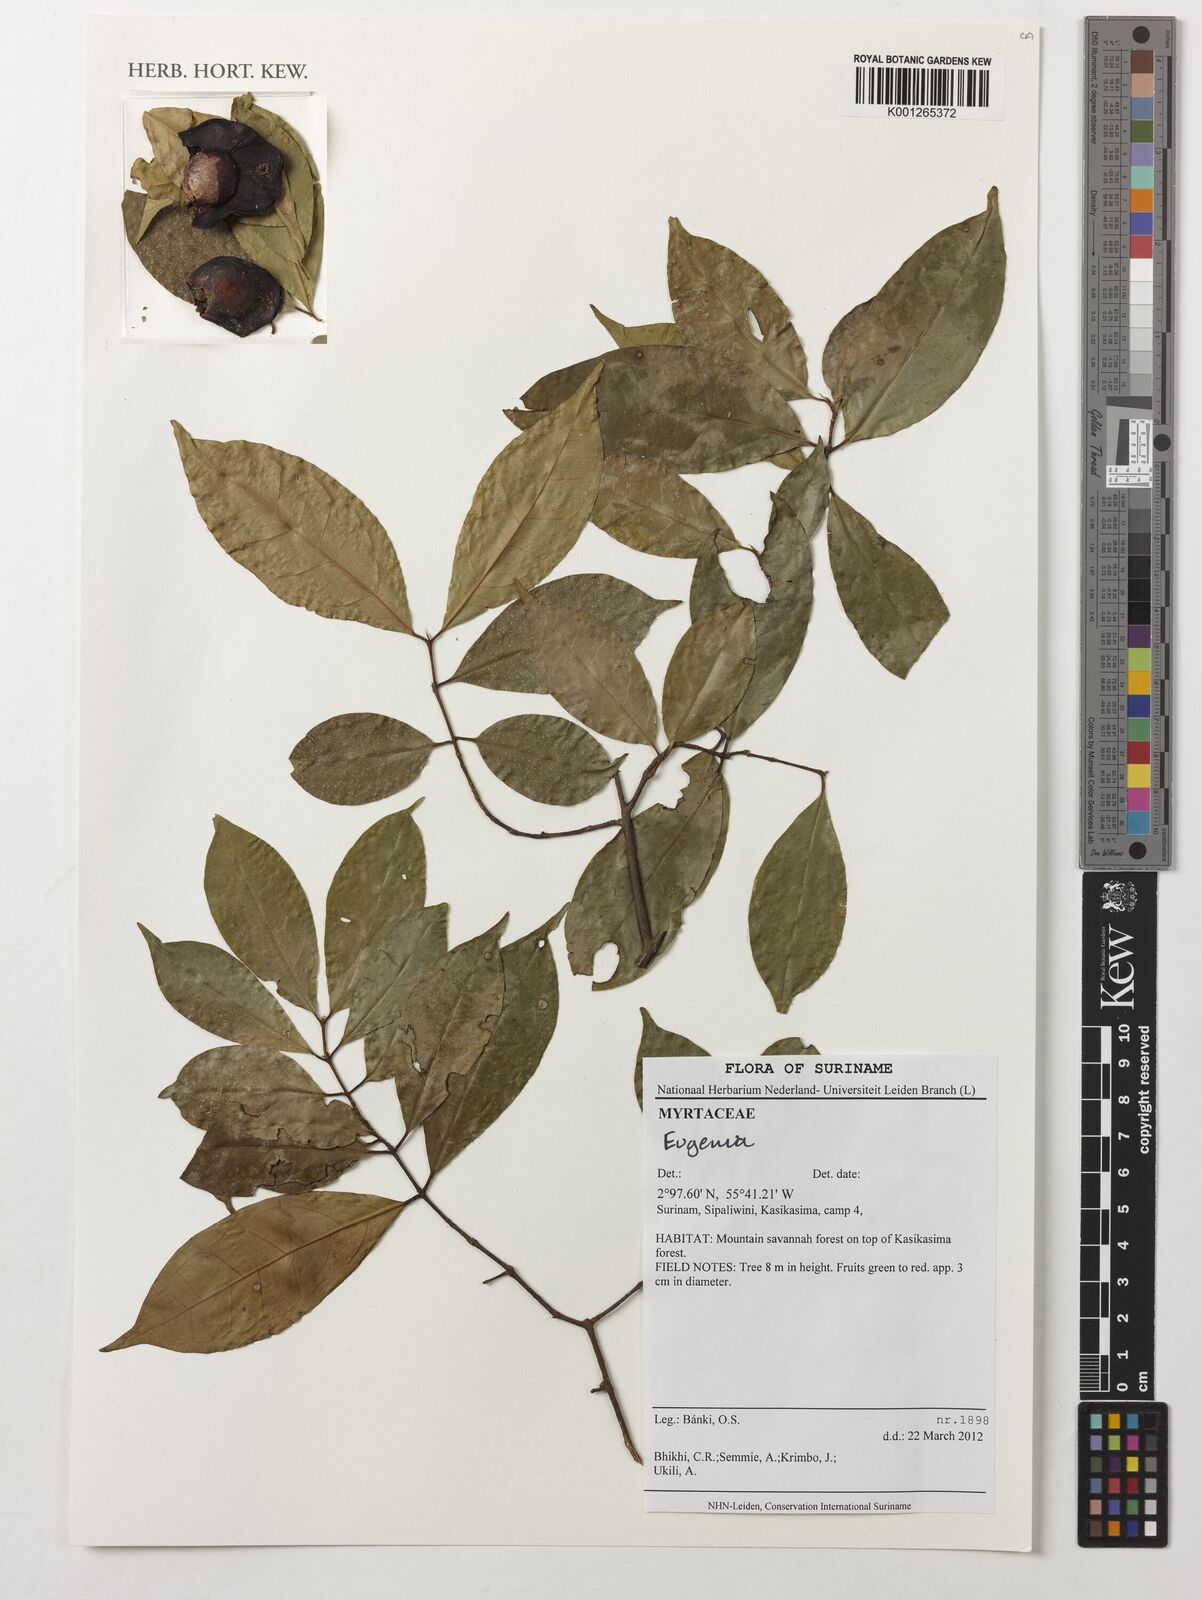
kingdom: Plantae
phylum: Tracheophyta
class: Magnoliopsida
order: Myrtales
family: Myrtaceae
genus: Eugenia
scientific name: Eugenia
